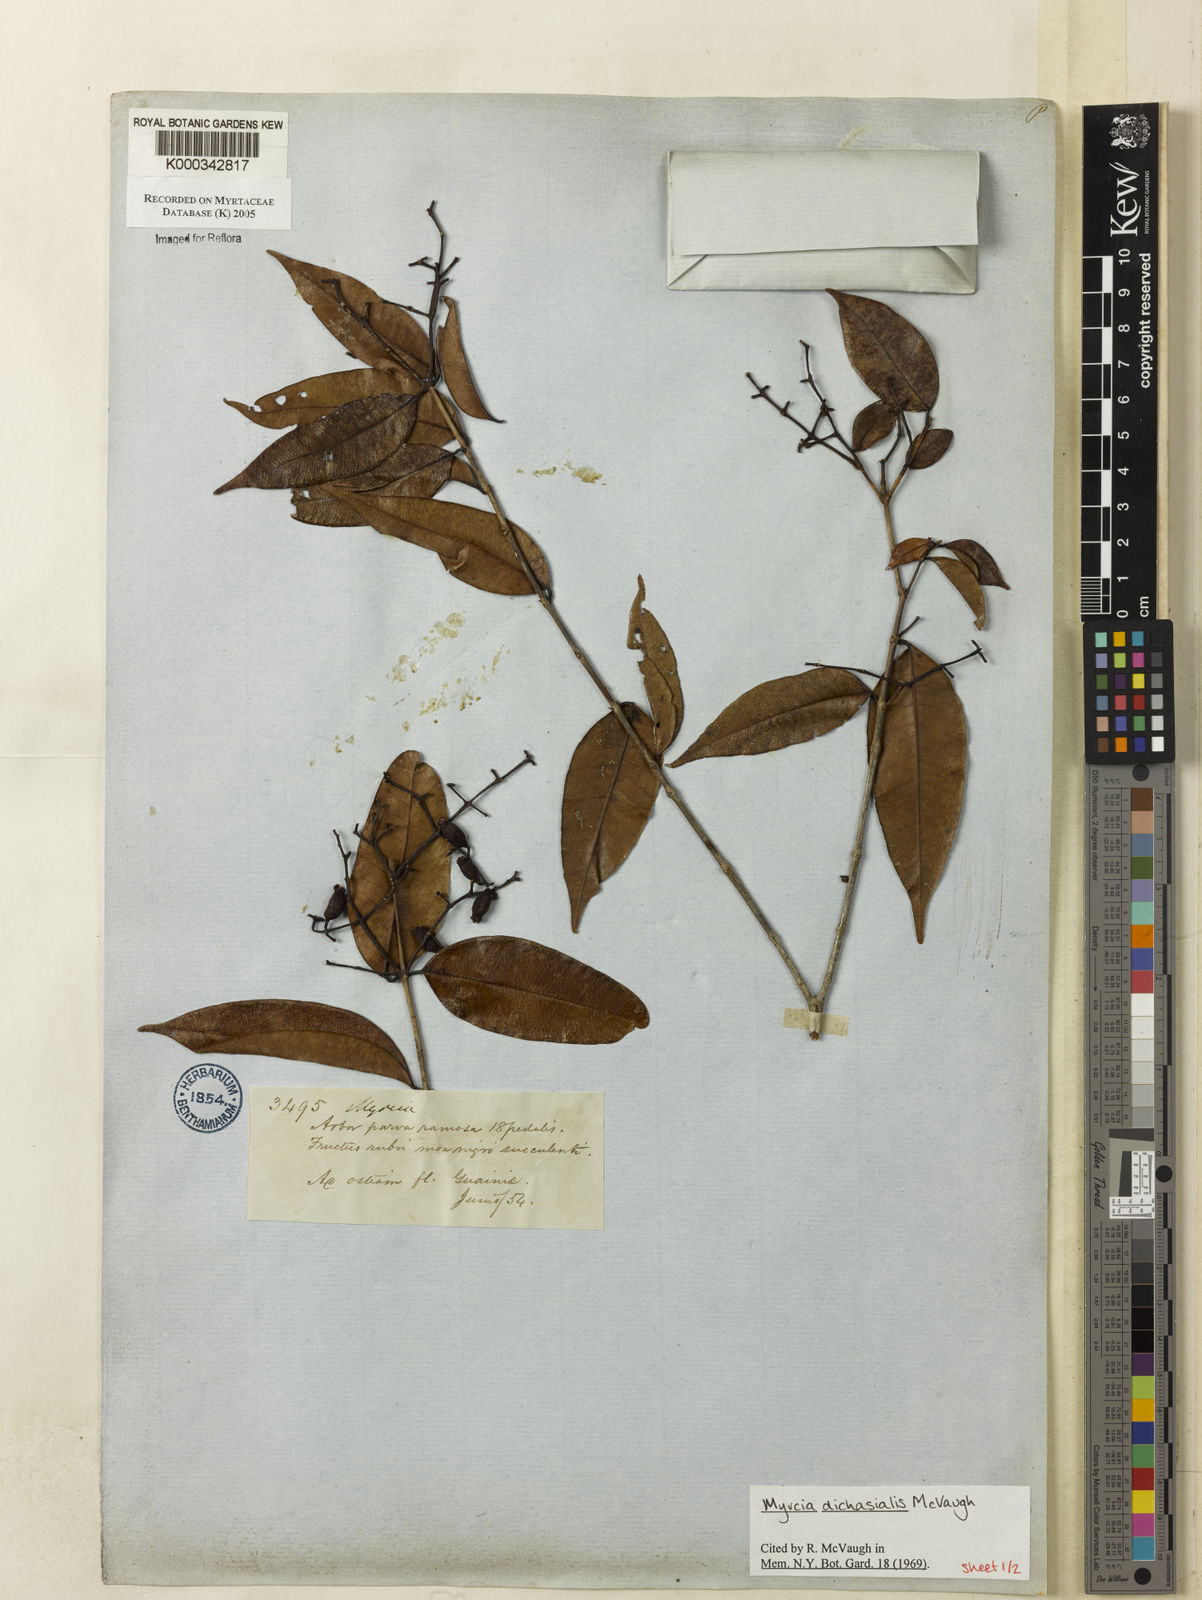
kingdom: Plantae
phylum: Tracheophyta
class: Magnoliopsida
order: Myrtales
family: Myrtaceae
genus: Myrcia
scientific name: Myrcia dichasialis
